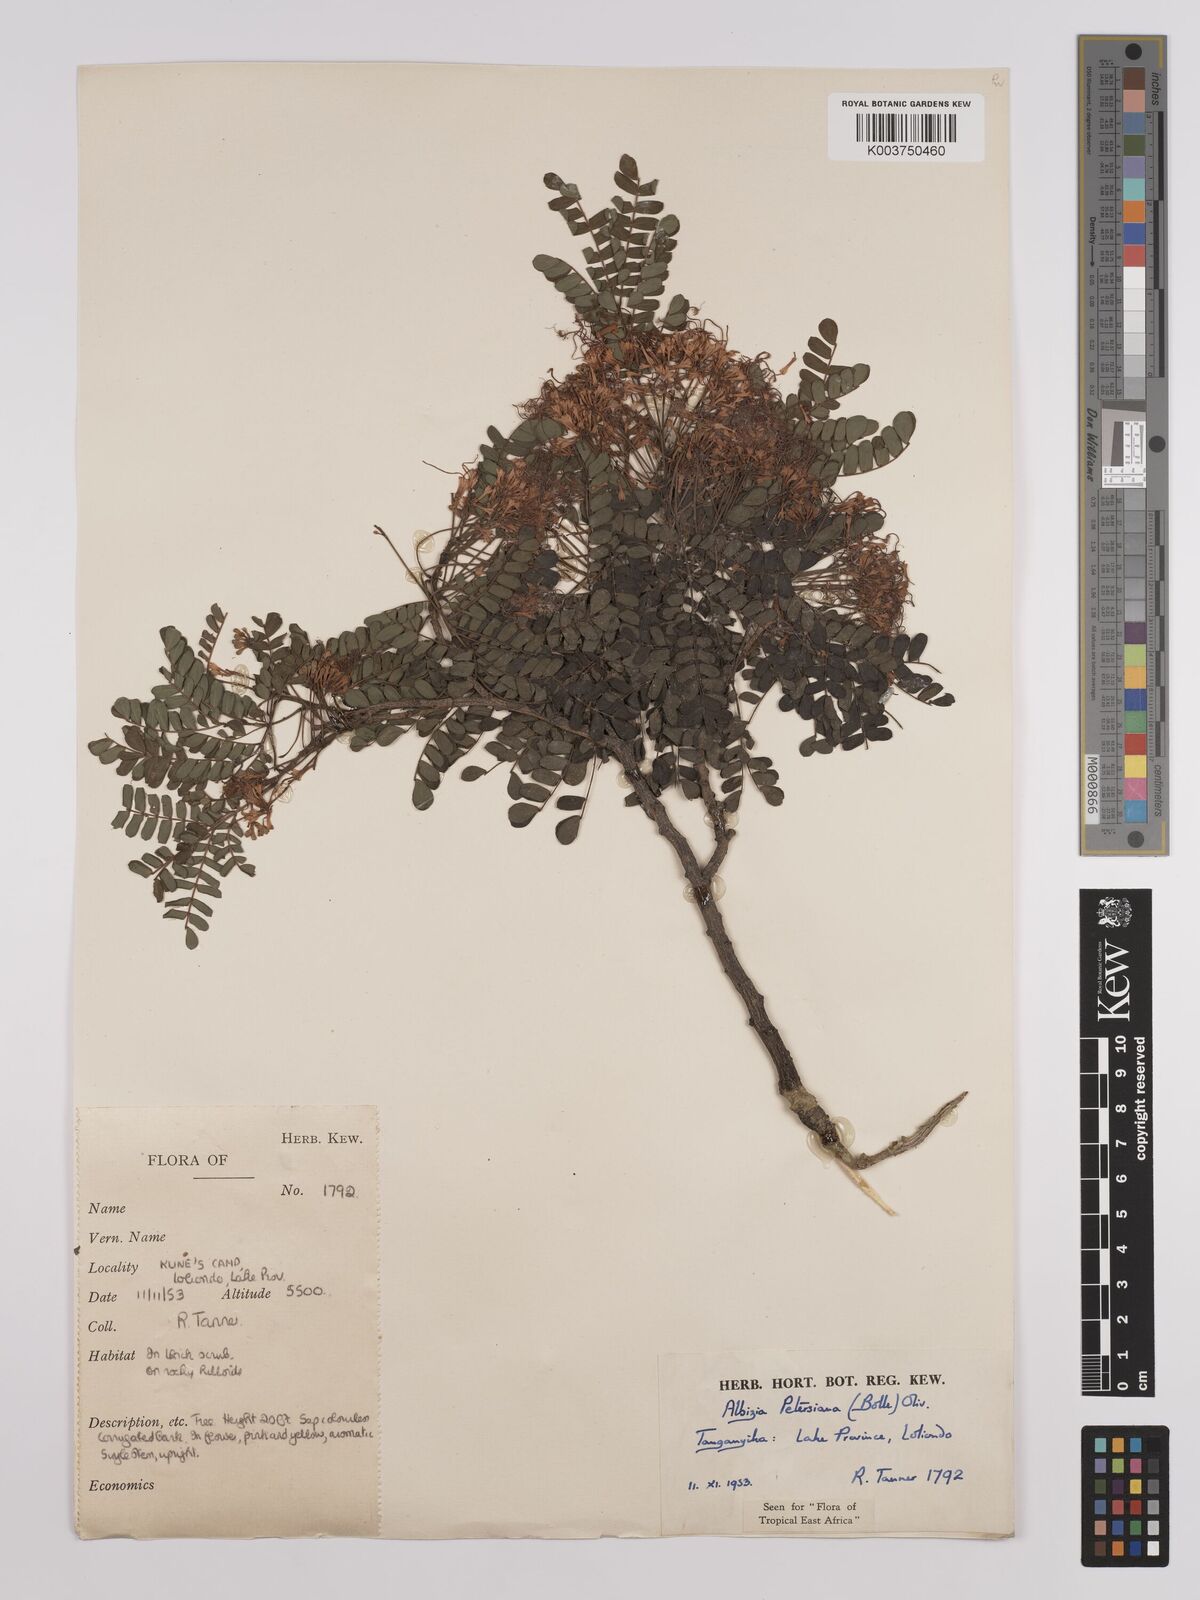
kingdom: Plantae
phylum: Tracheophyta
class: Magnoliopsida
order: Fabales
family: Fabaceae
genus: Albizia
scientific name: Albizia petersiana
